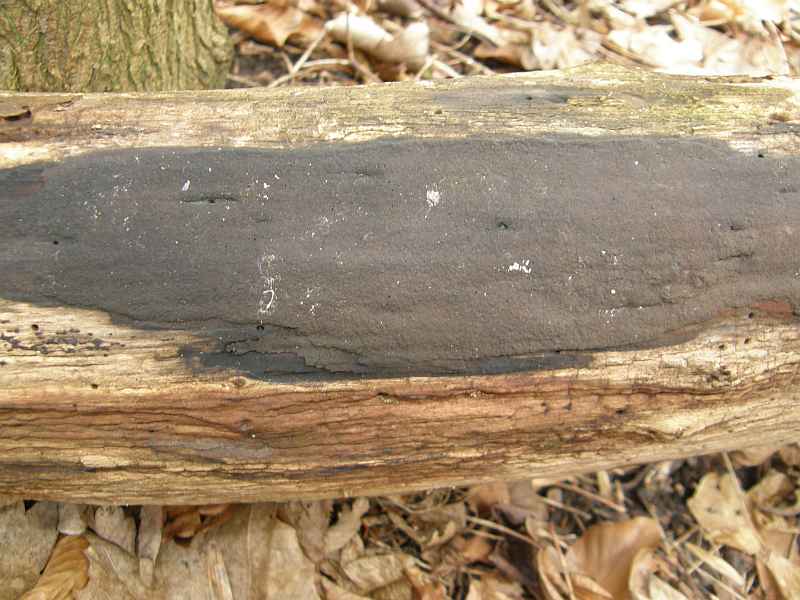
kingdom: Fungi
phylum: Ascomycota
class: Sordariomycetes
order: Xylariales
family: Hypoxylaceae
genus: Hypoxylon
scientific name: Hypoxylon macrocarpum
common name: skorpe-kulbær
